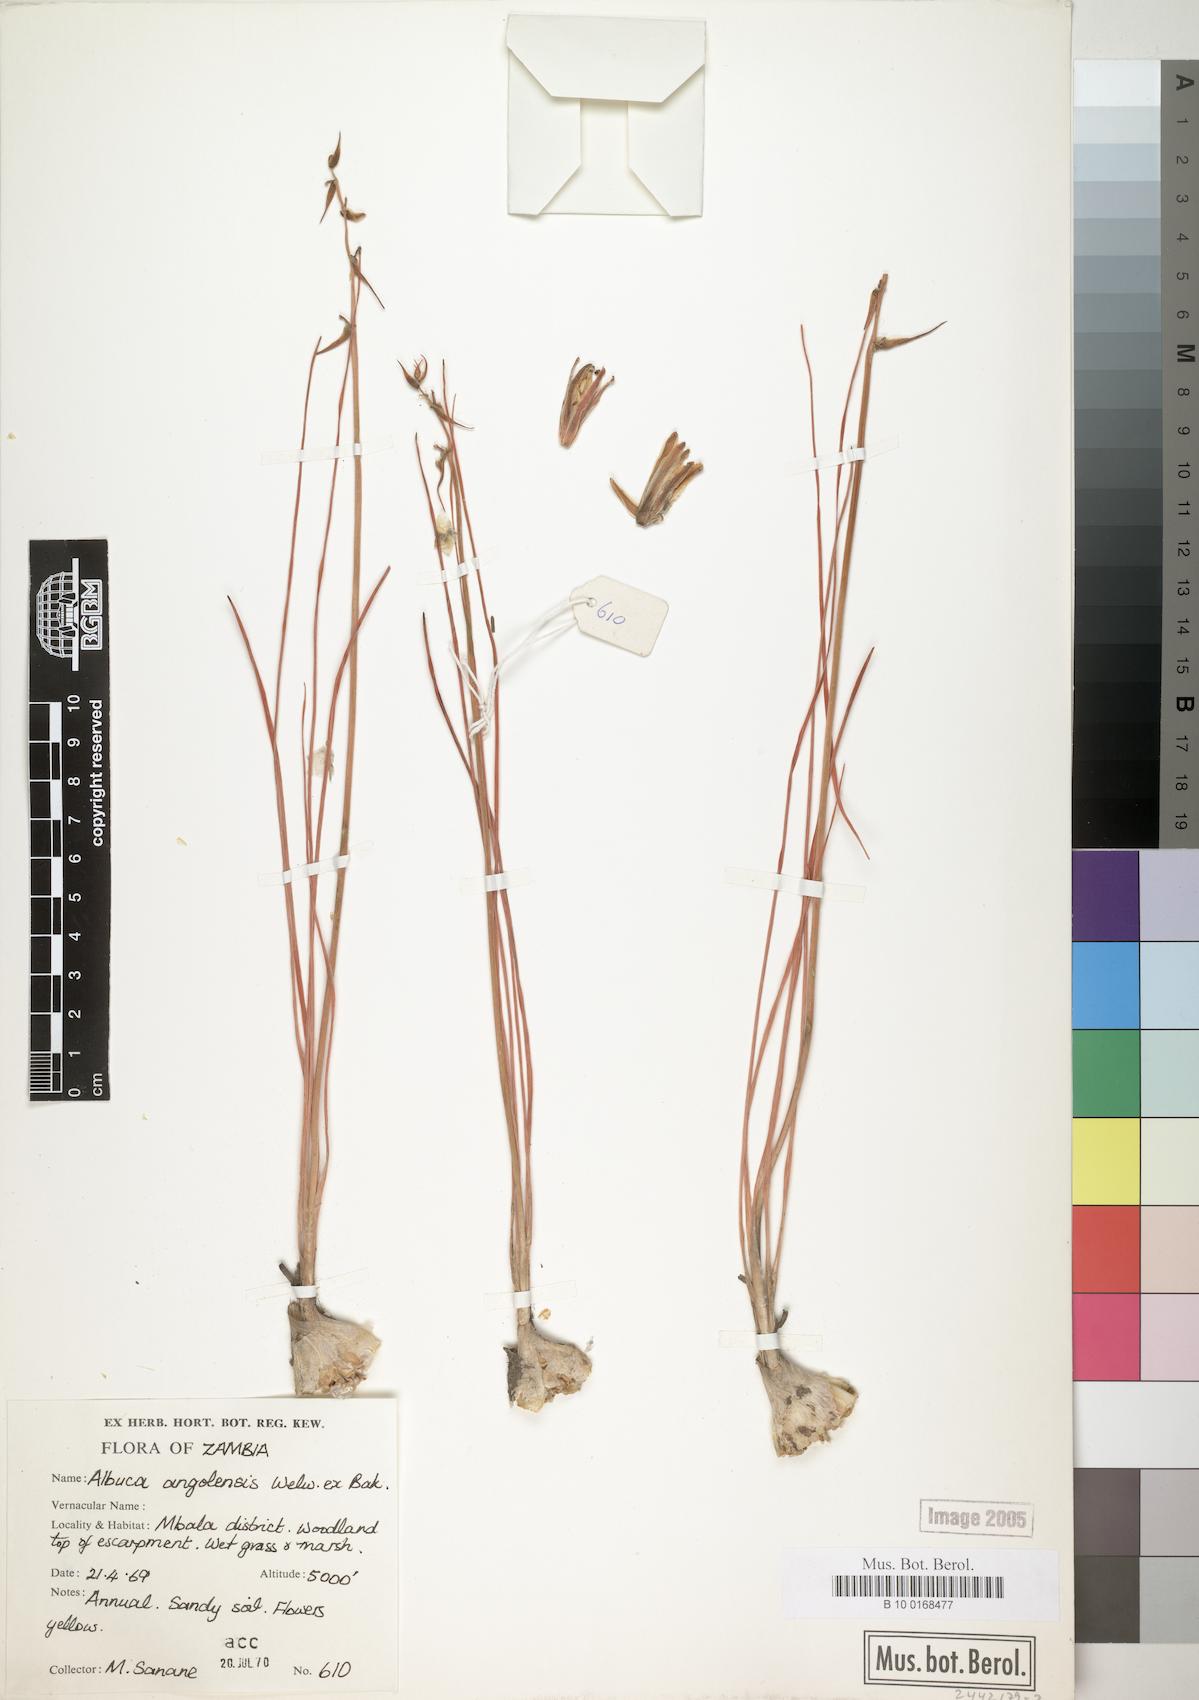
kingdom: Plantae
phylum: Tracheophyta
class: Liliopsida
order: Asparagales
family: Asparagaceae
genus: Albuca
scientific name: Albuca abyssinica
